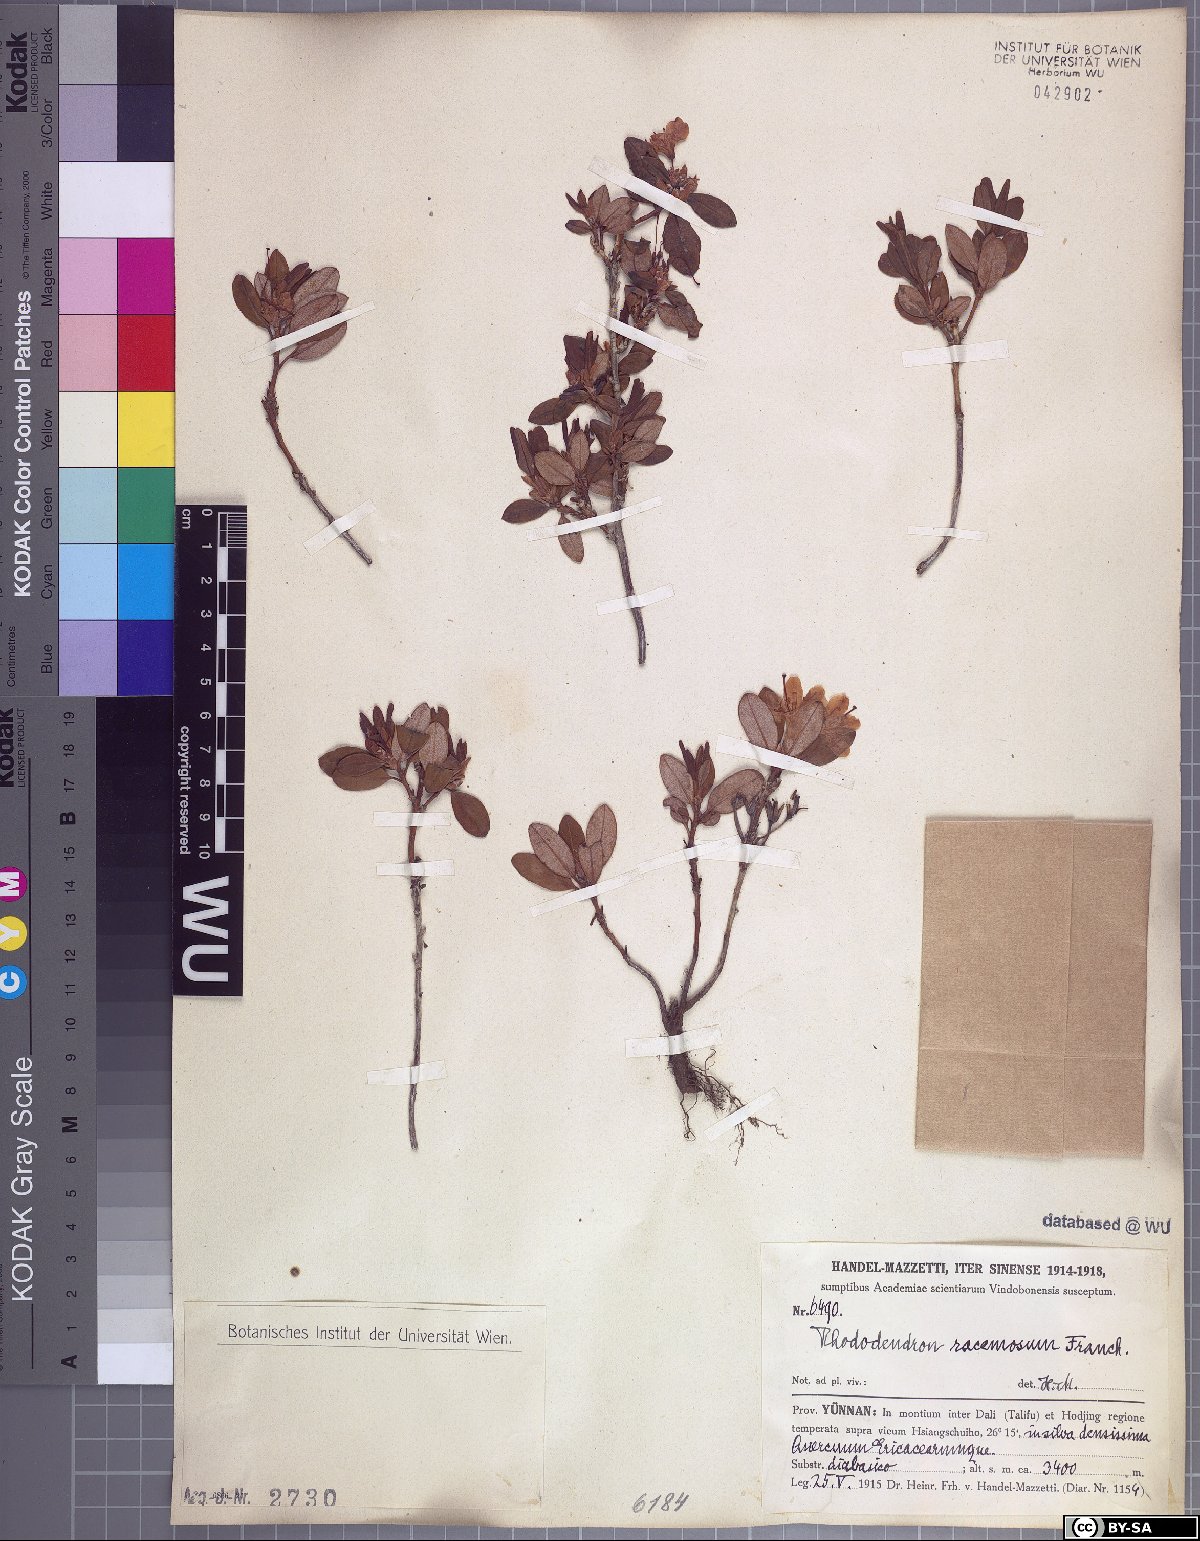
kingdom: Plantae
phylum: Tracheophyta
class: Magnoliopsida
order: Ericales
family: Ericaceae
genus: Rhododendron
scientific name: Rhododendron racemosum
